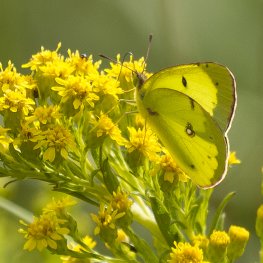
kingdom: Animalia
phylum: Arthropoda
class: Insecta
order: Lepidoptera
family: Pieridae
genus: Colias
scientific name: Colias philodice
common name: Clouded Sulphur
